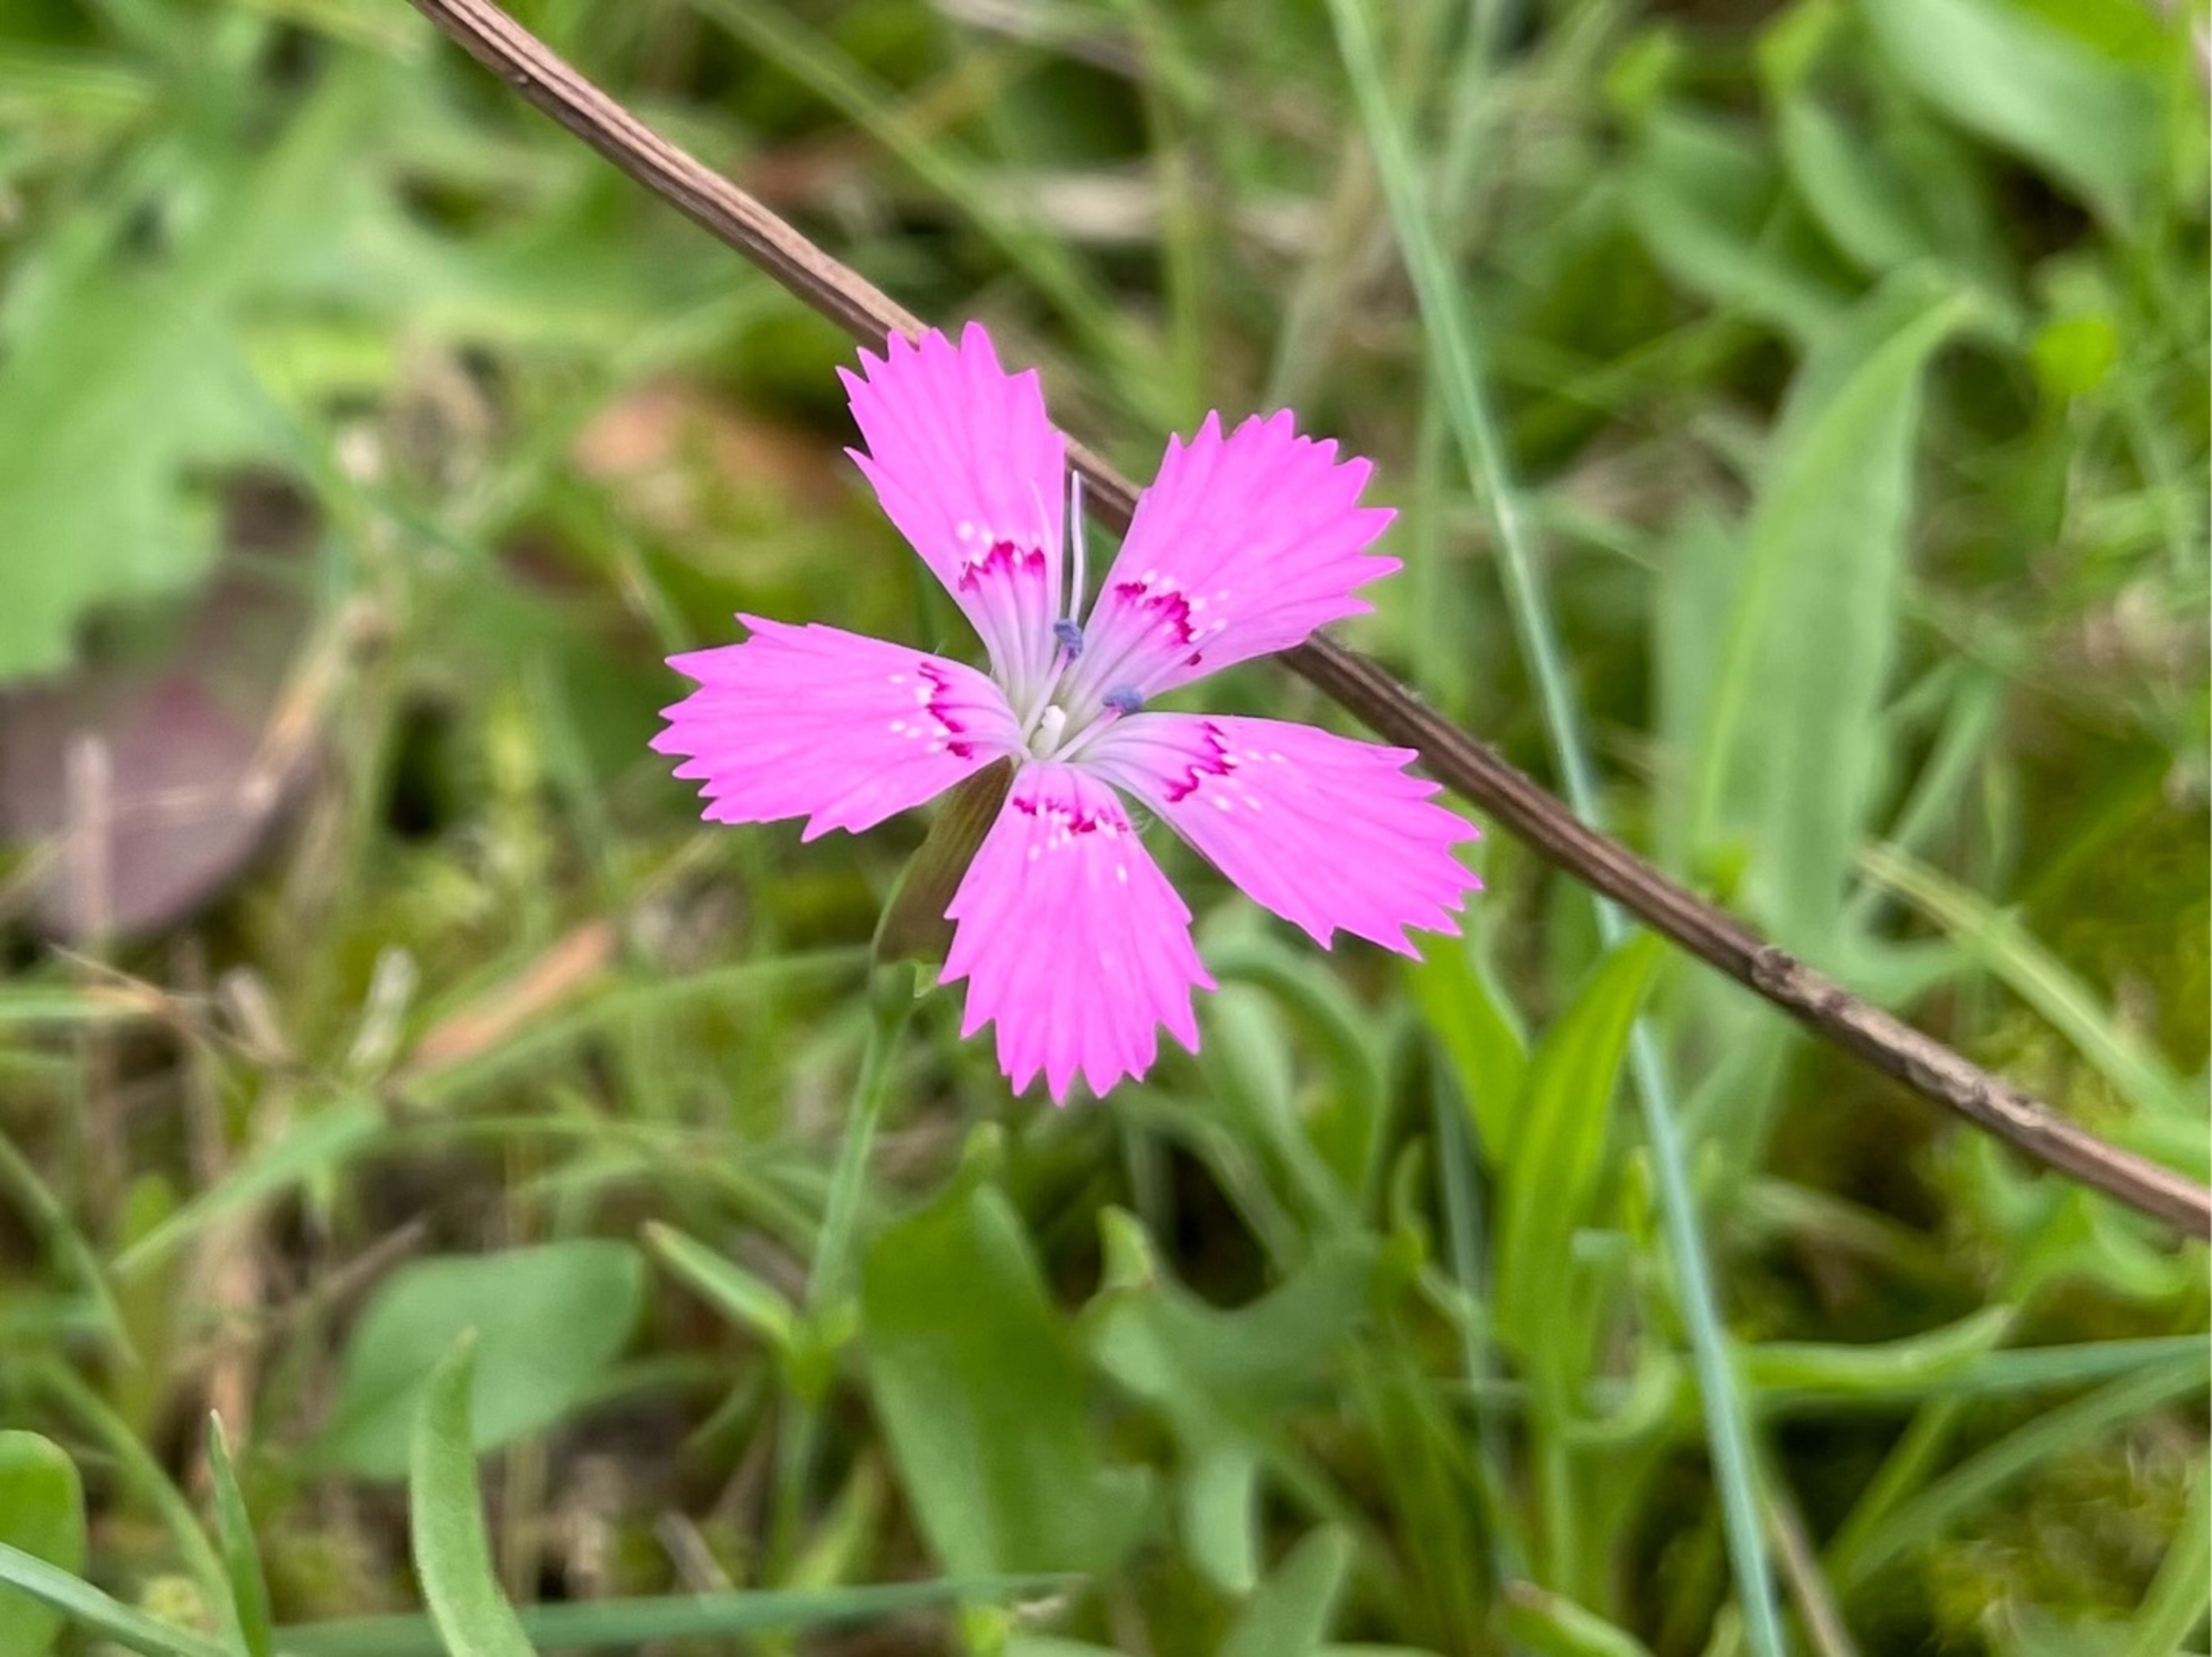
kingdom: Plantae
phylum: Tracheophyta
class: Magnoliopsida
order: Caryophyllales
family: Caryophyllaceae
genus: Dianthus
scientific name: Dianthus deltoides
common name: Bakke-nellike
